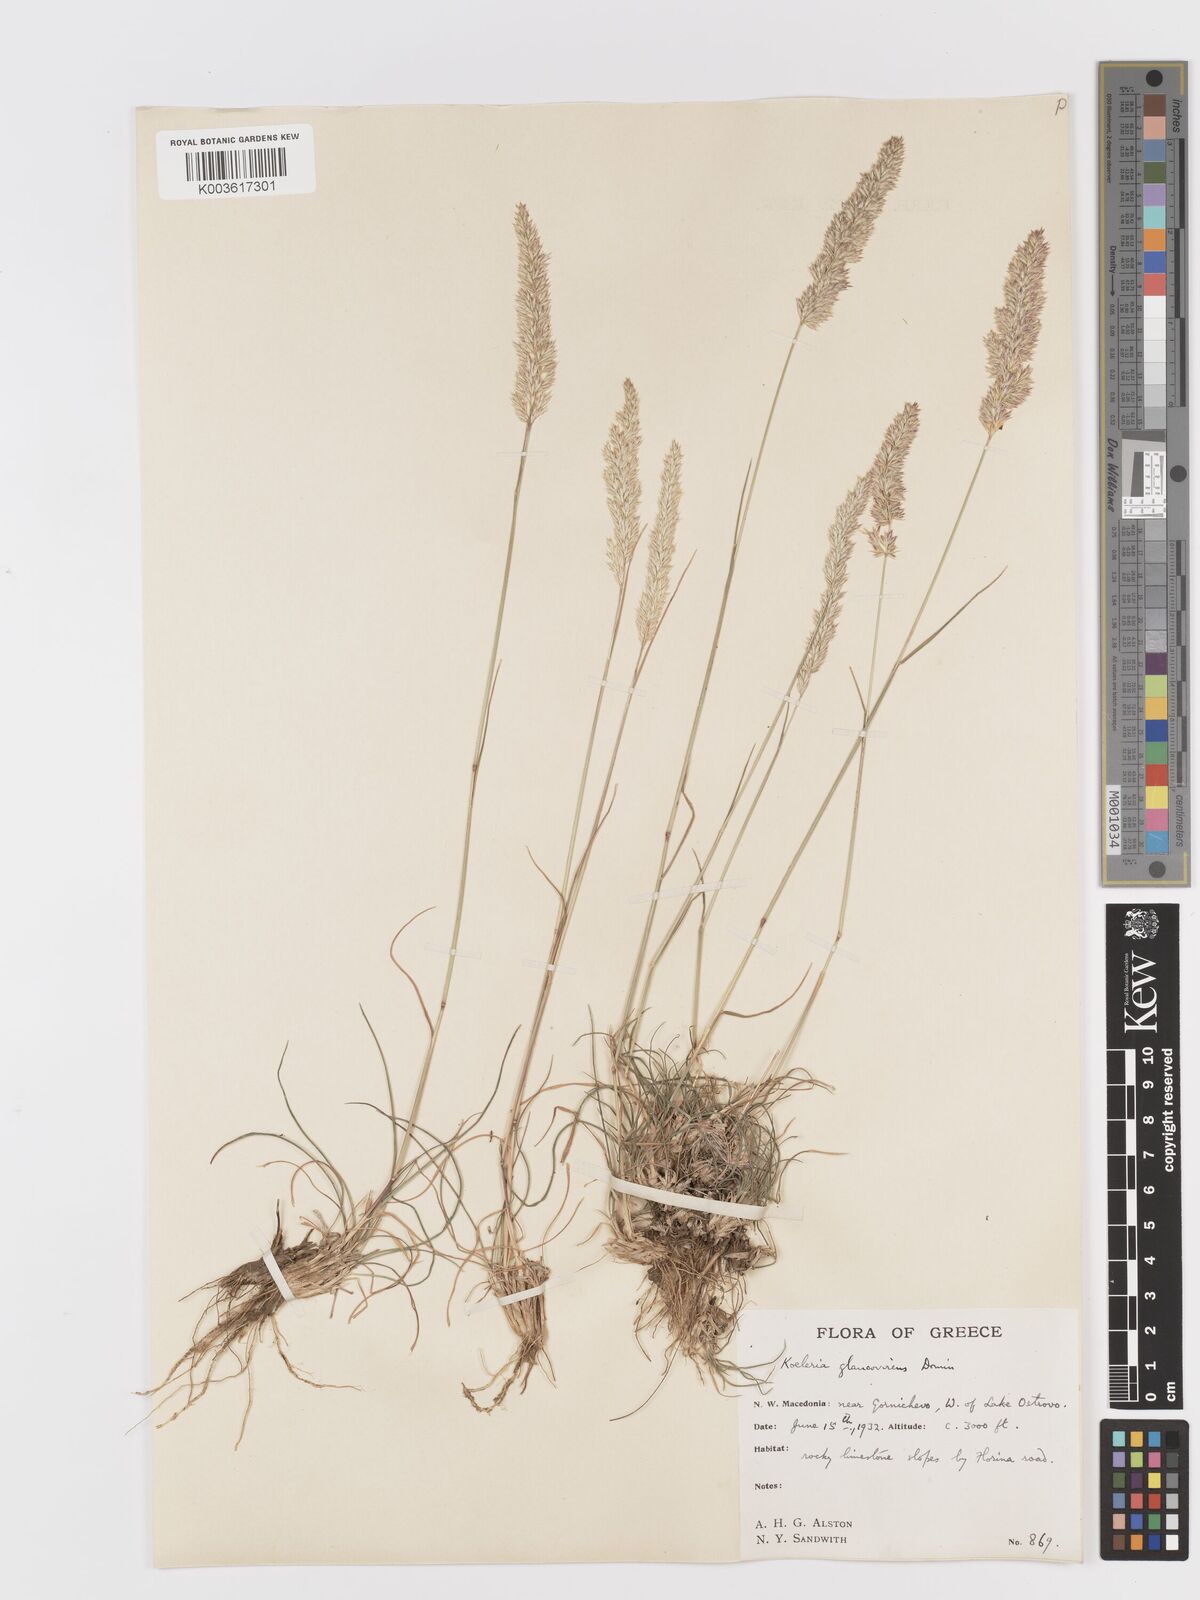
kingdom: Plantae
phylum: Tracheophyta
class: Liliopsida
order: Poales
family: Poaceae
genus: Koeleria
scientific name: Koeleria macrantha
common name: Crested hair-grass
